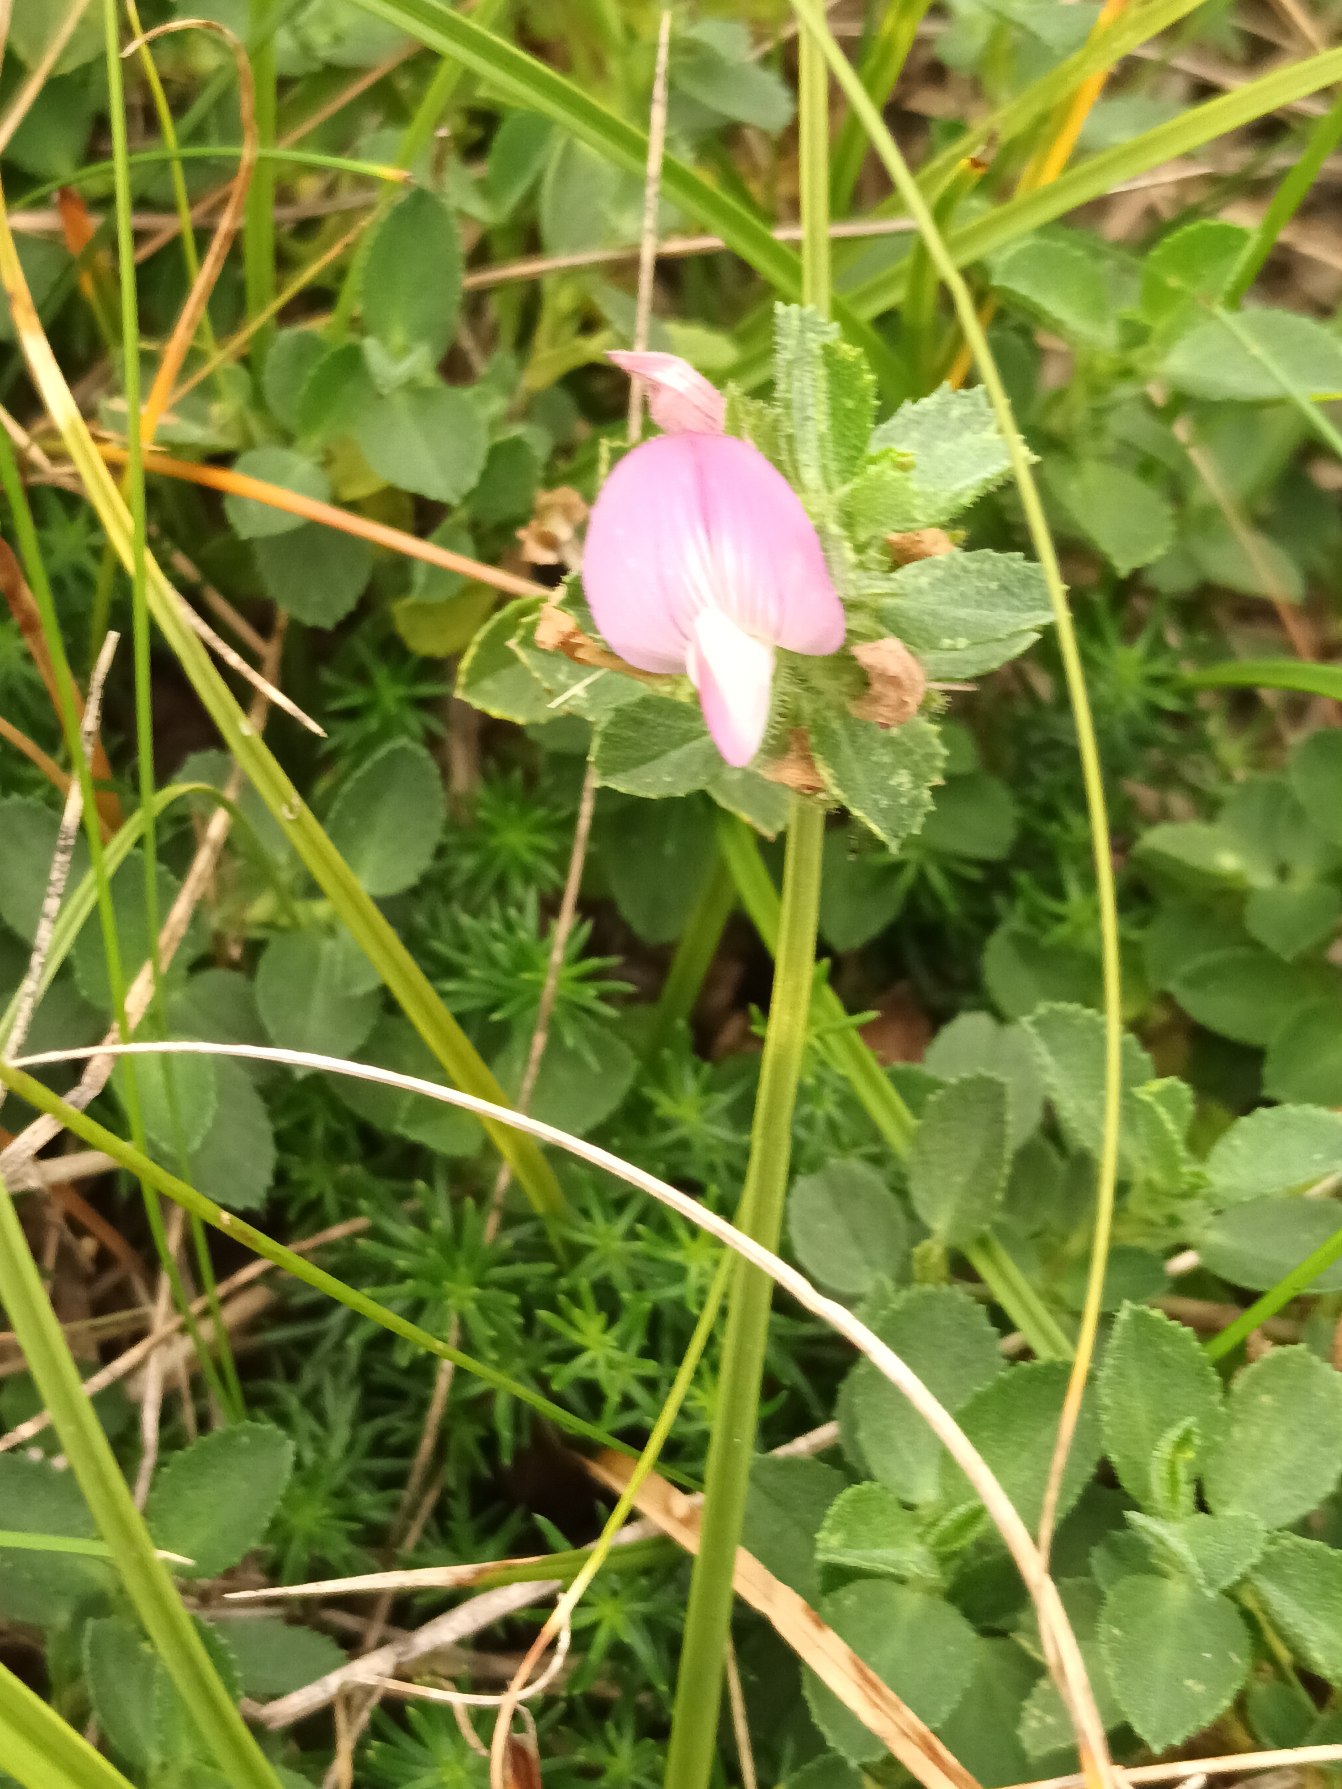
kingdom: Plantae
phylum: Tracheophyta
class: Magnoliopsida
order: Fabales
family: Fabaceae
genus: Ononis
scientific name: Ononis spinosa
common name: Mark-krageklo
